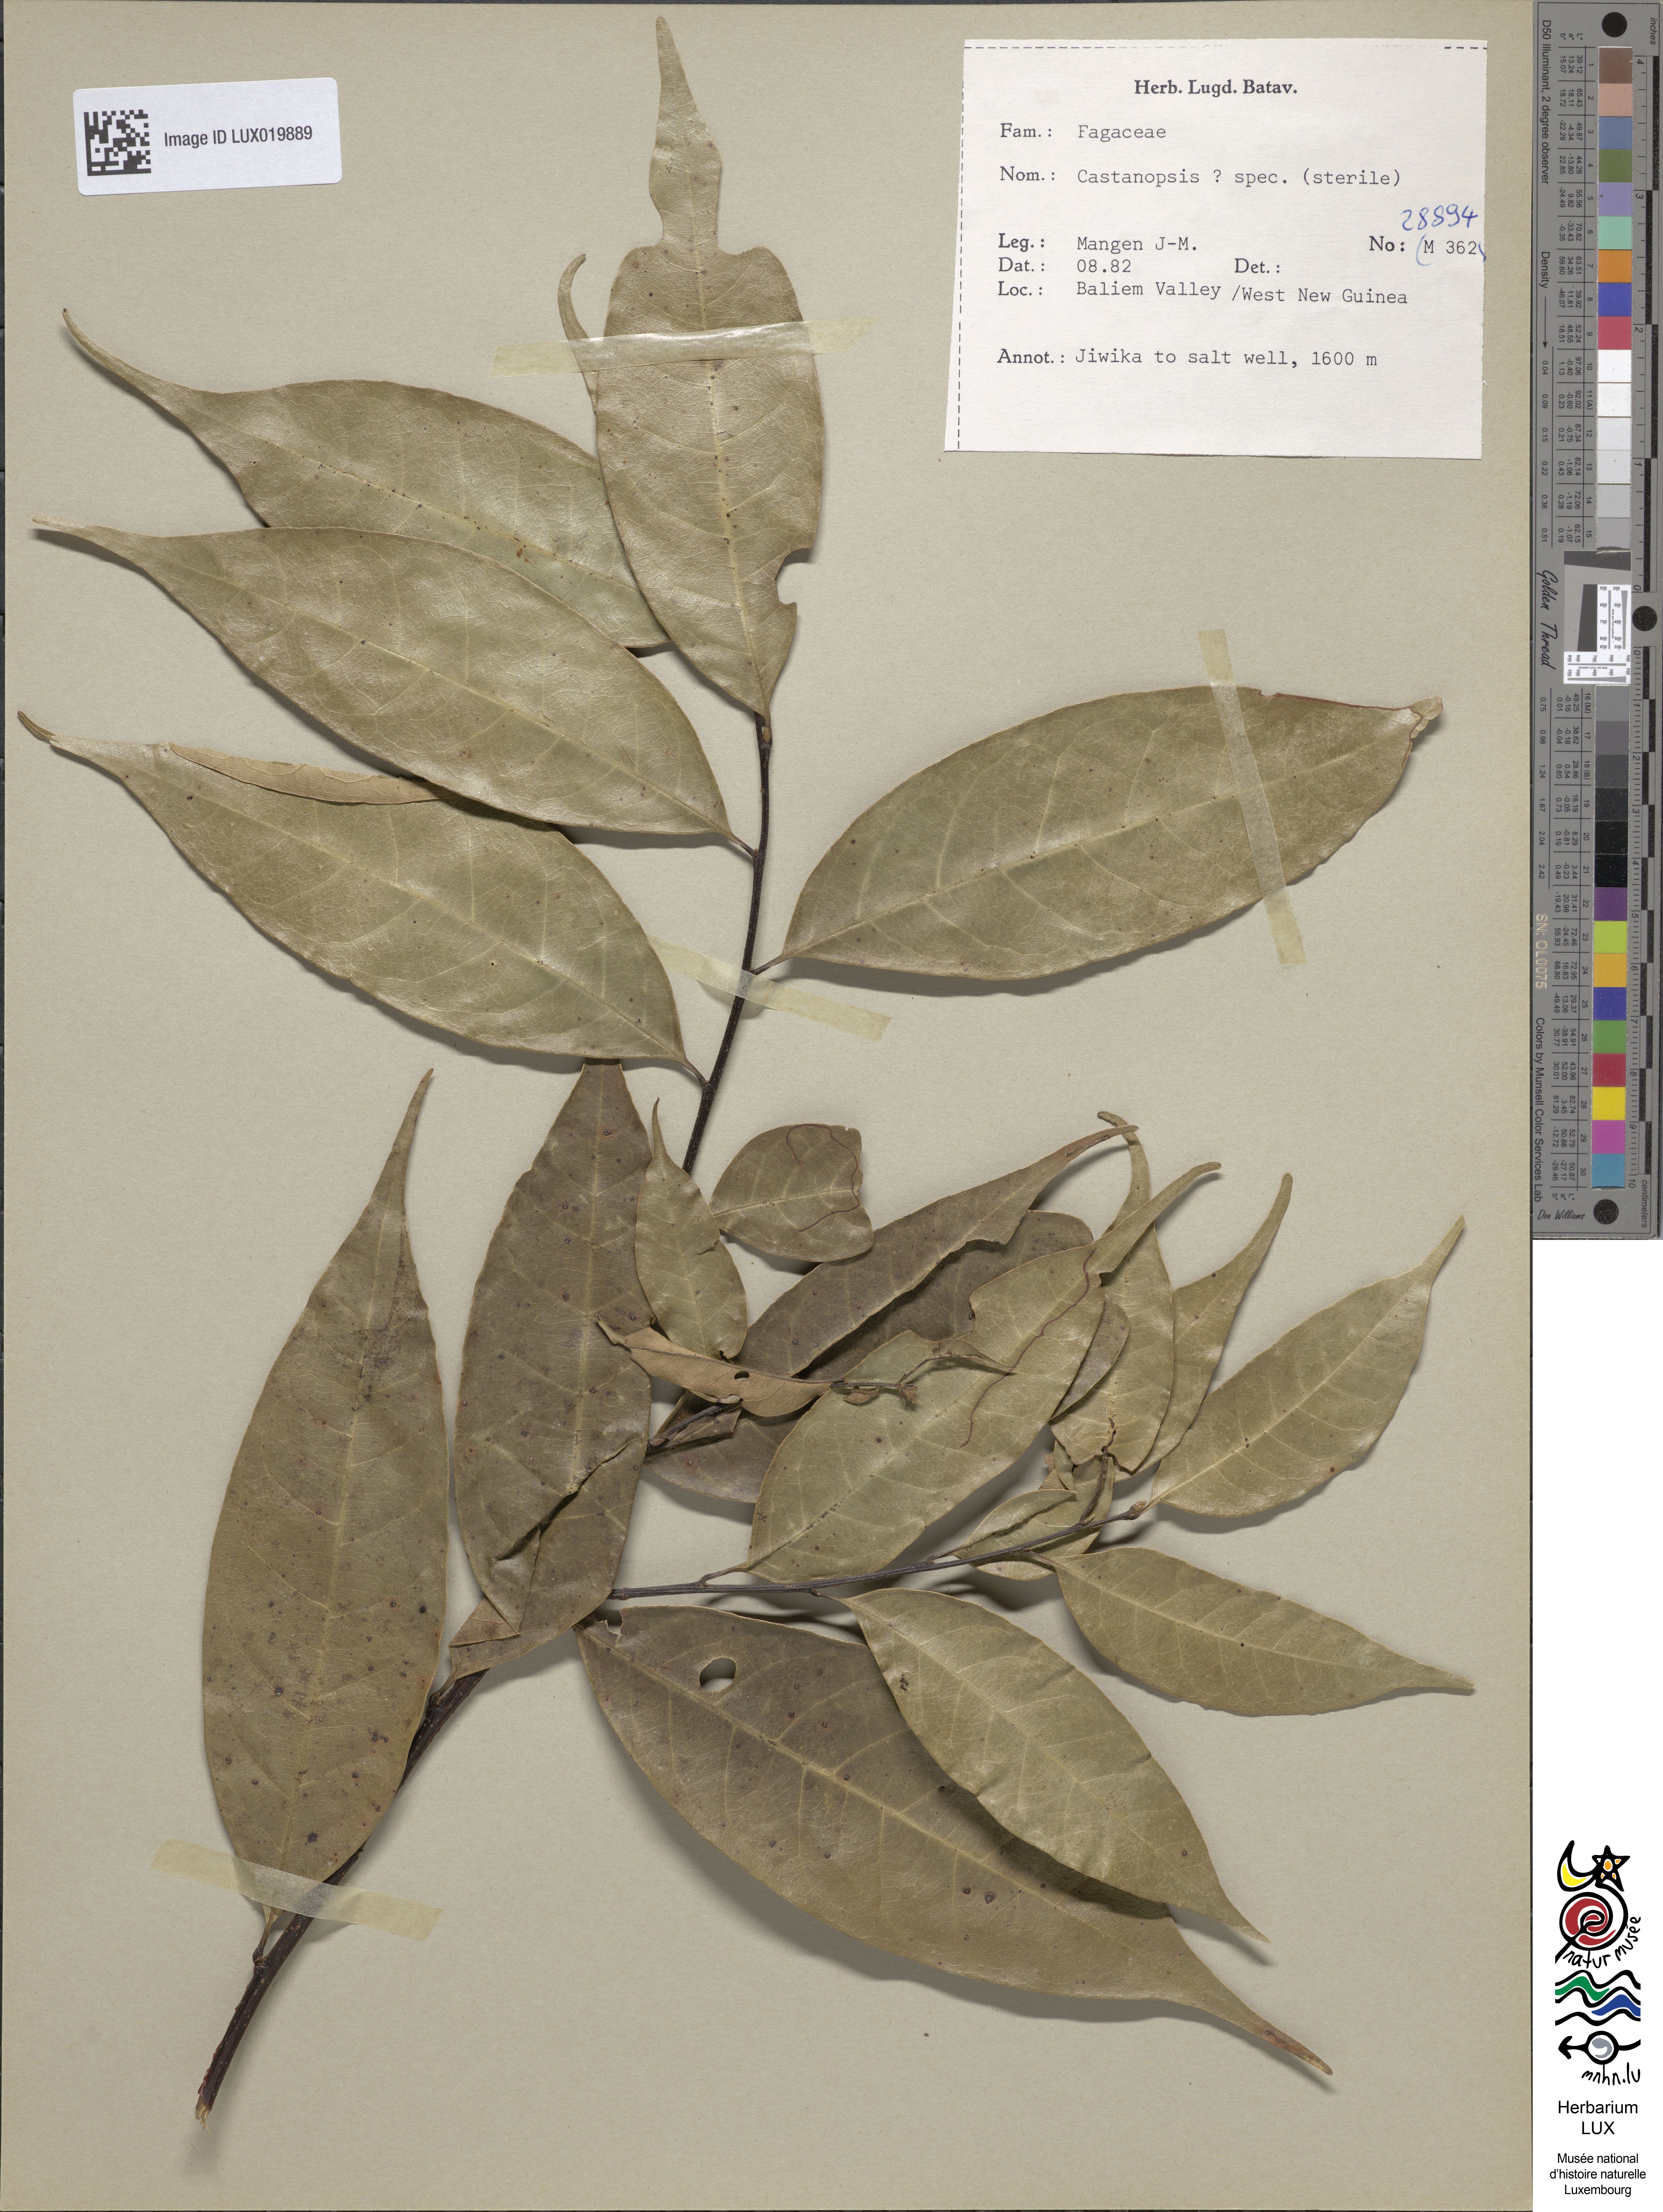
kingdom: Plantae
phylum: Tracheophyta
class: Magnoliopsida
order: Fagales
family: Fagaceae
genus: Castanopsis
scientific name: Castanopsis
